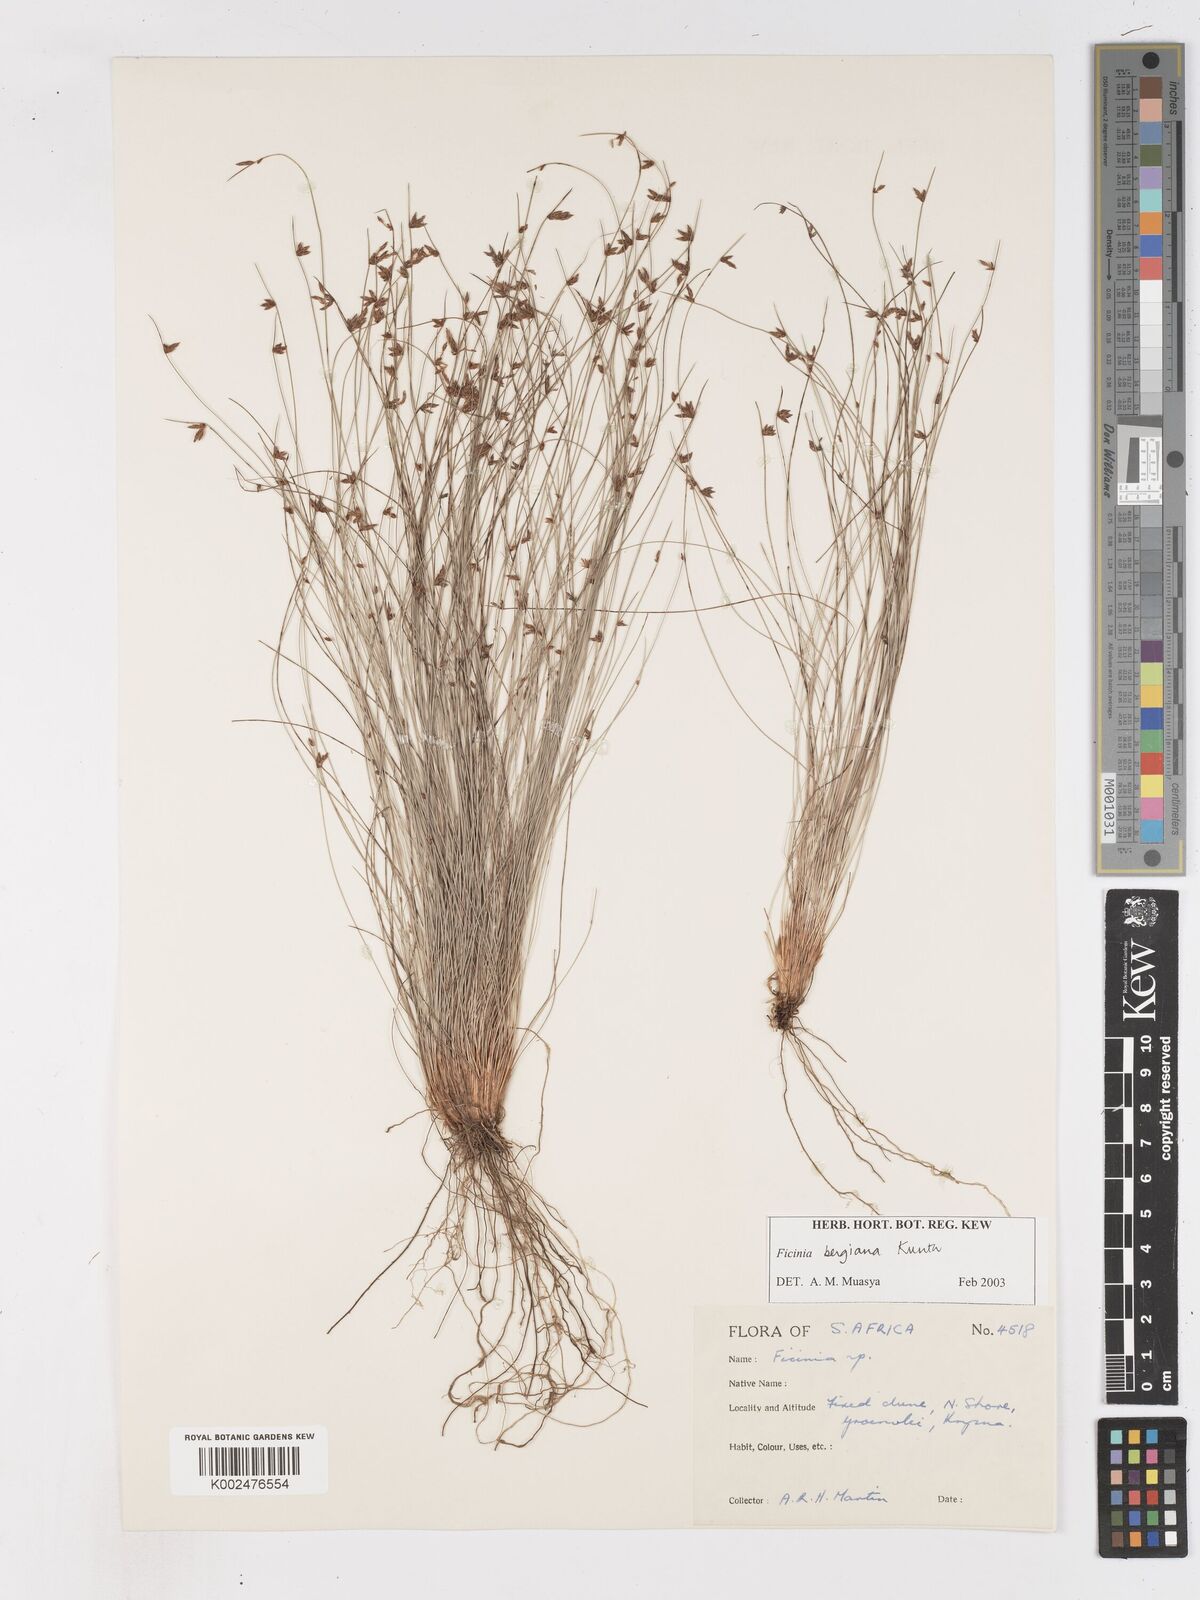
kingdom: Plantae
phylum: Tracheophyta
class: Liliopsida
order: Poales
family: Cyperaceae
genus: Ficinia
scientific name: Ficinia
